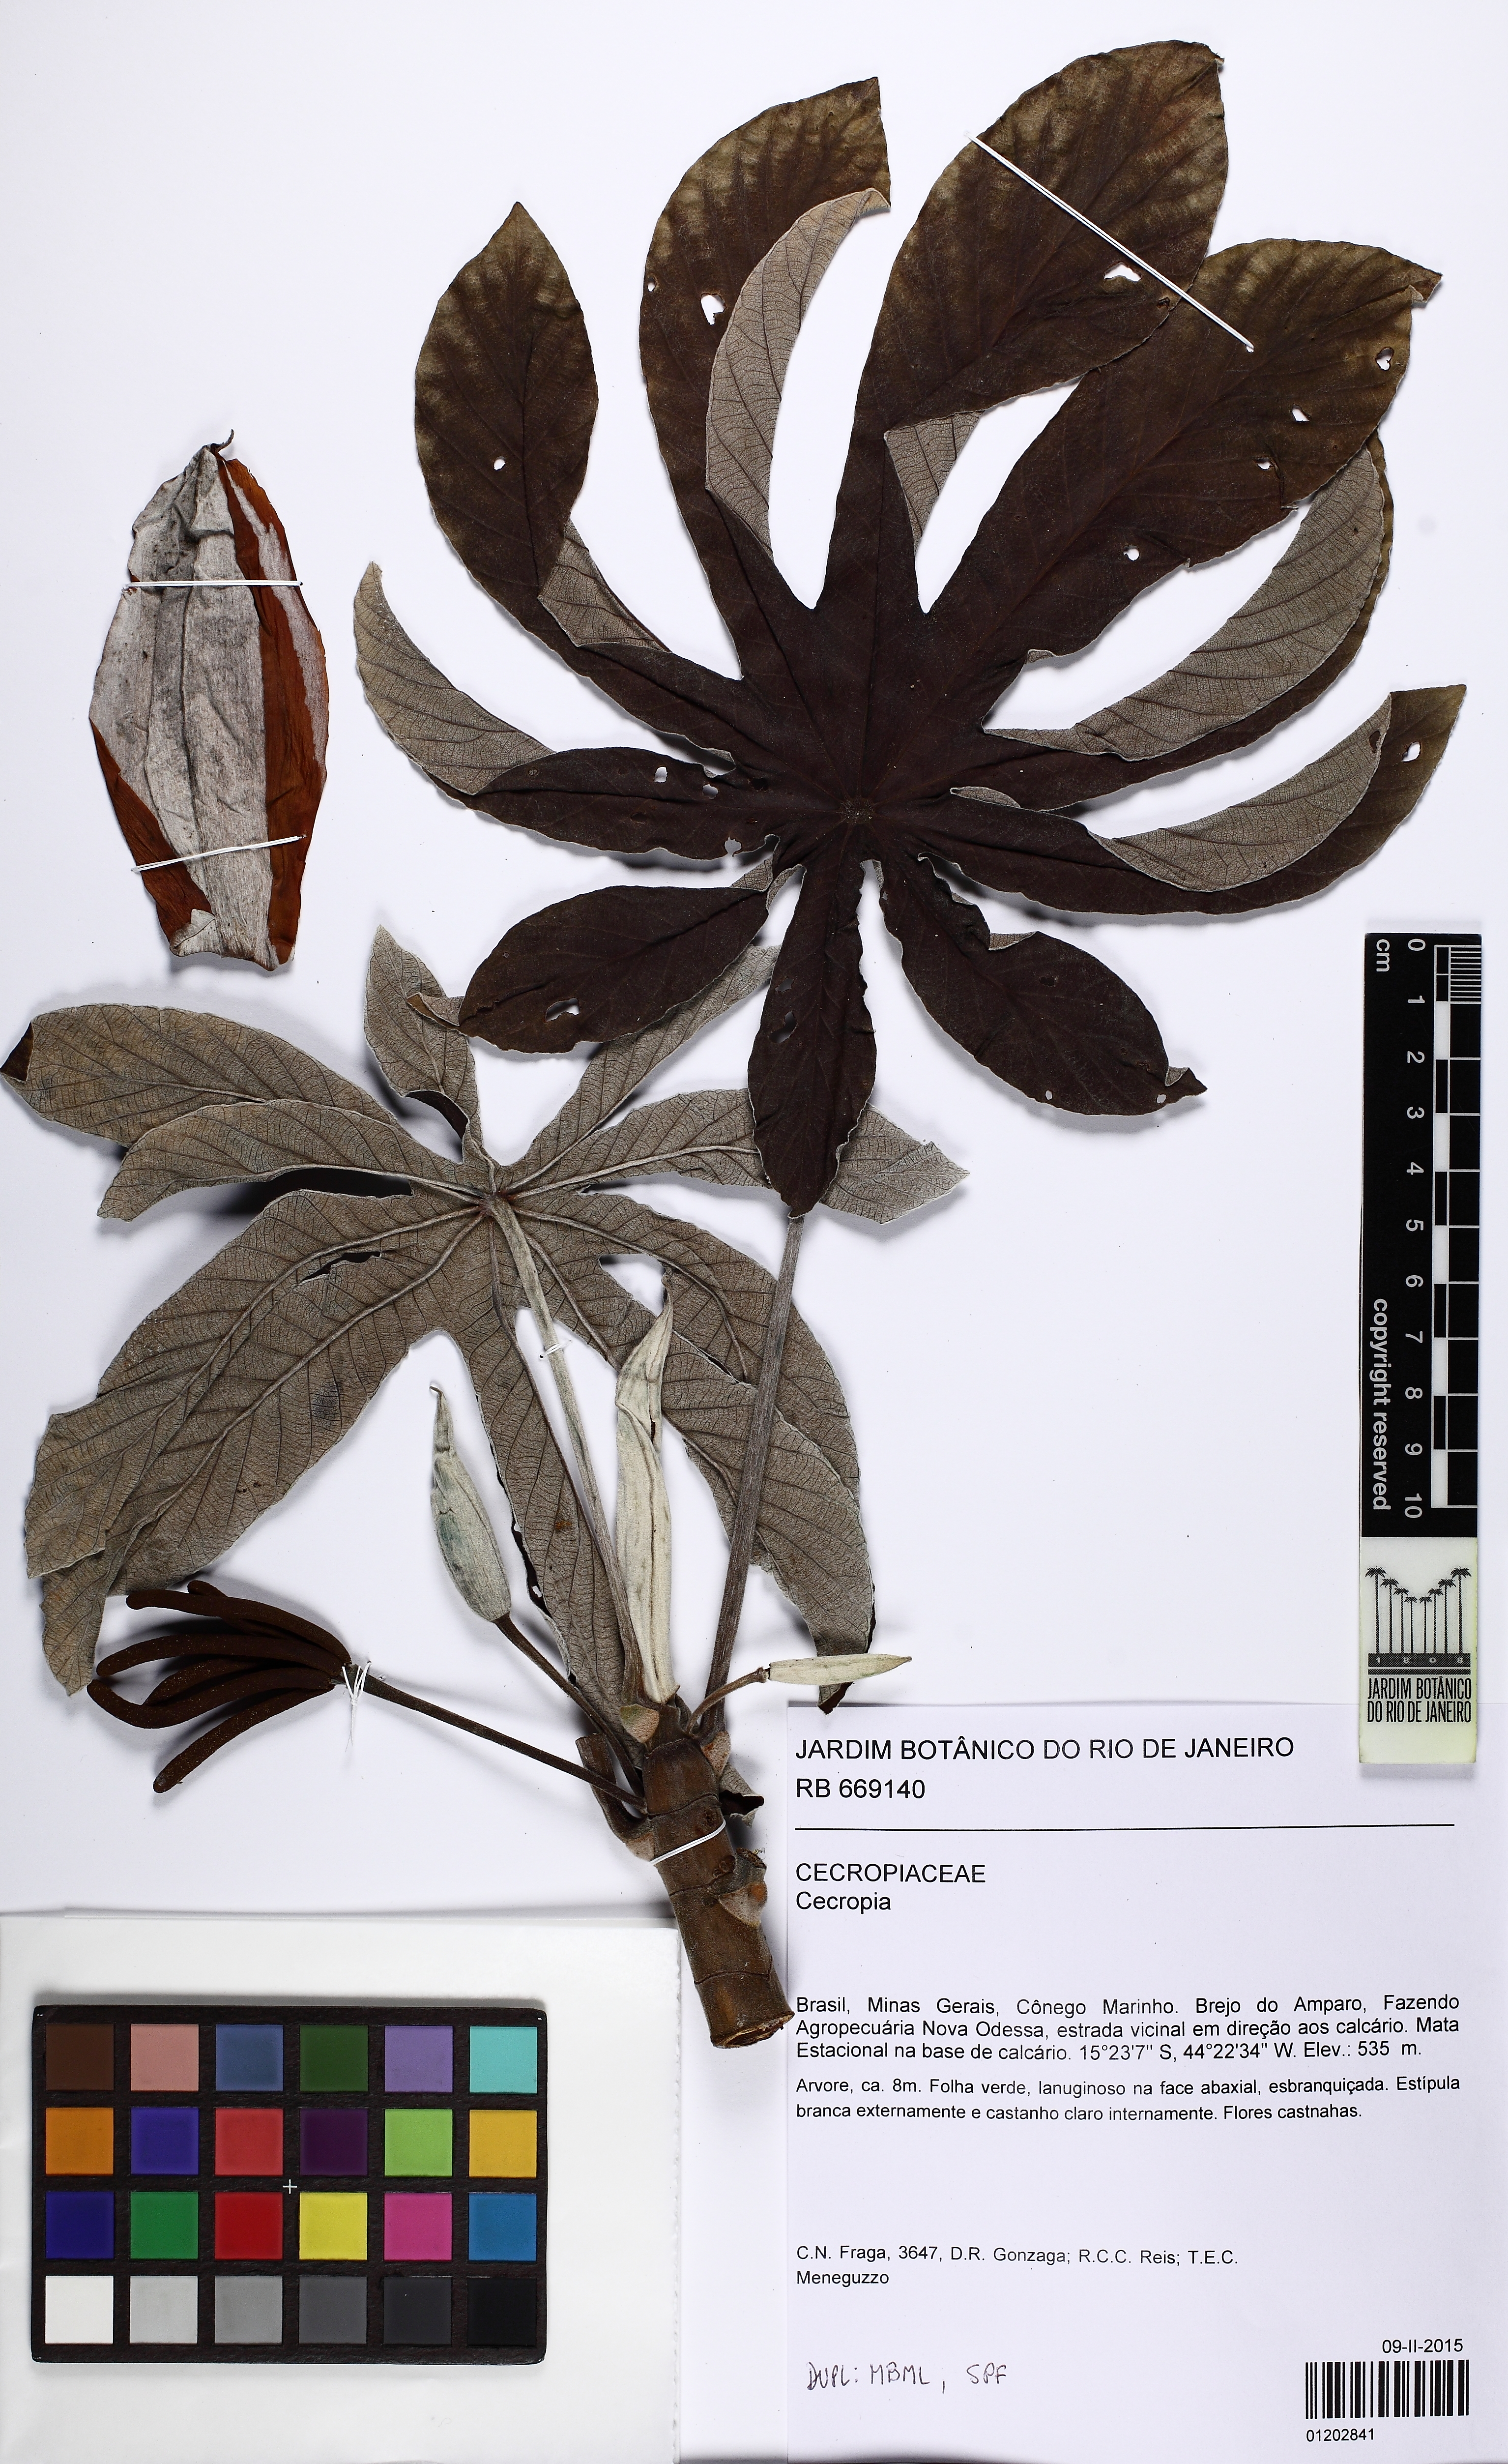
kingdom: Plantae
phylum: Tracheophyta
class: Magnoliopsida
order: Rosales
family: Urticaceae
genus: Cecropia
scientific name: Cecropia pachystachya
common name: Ambay pumpwood
